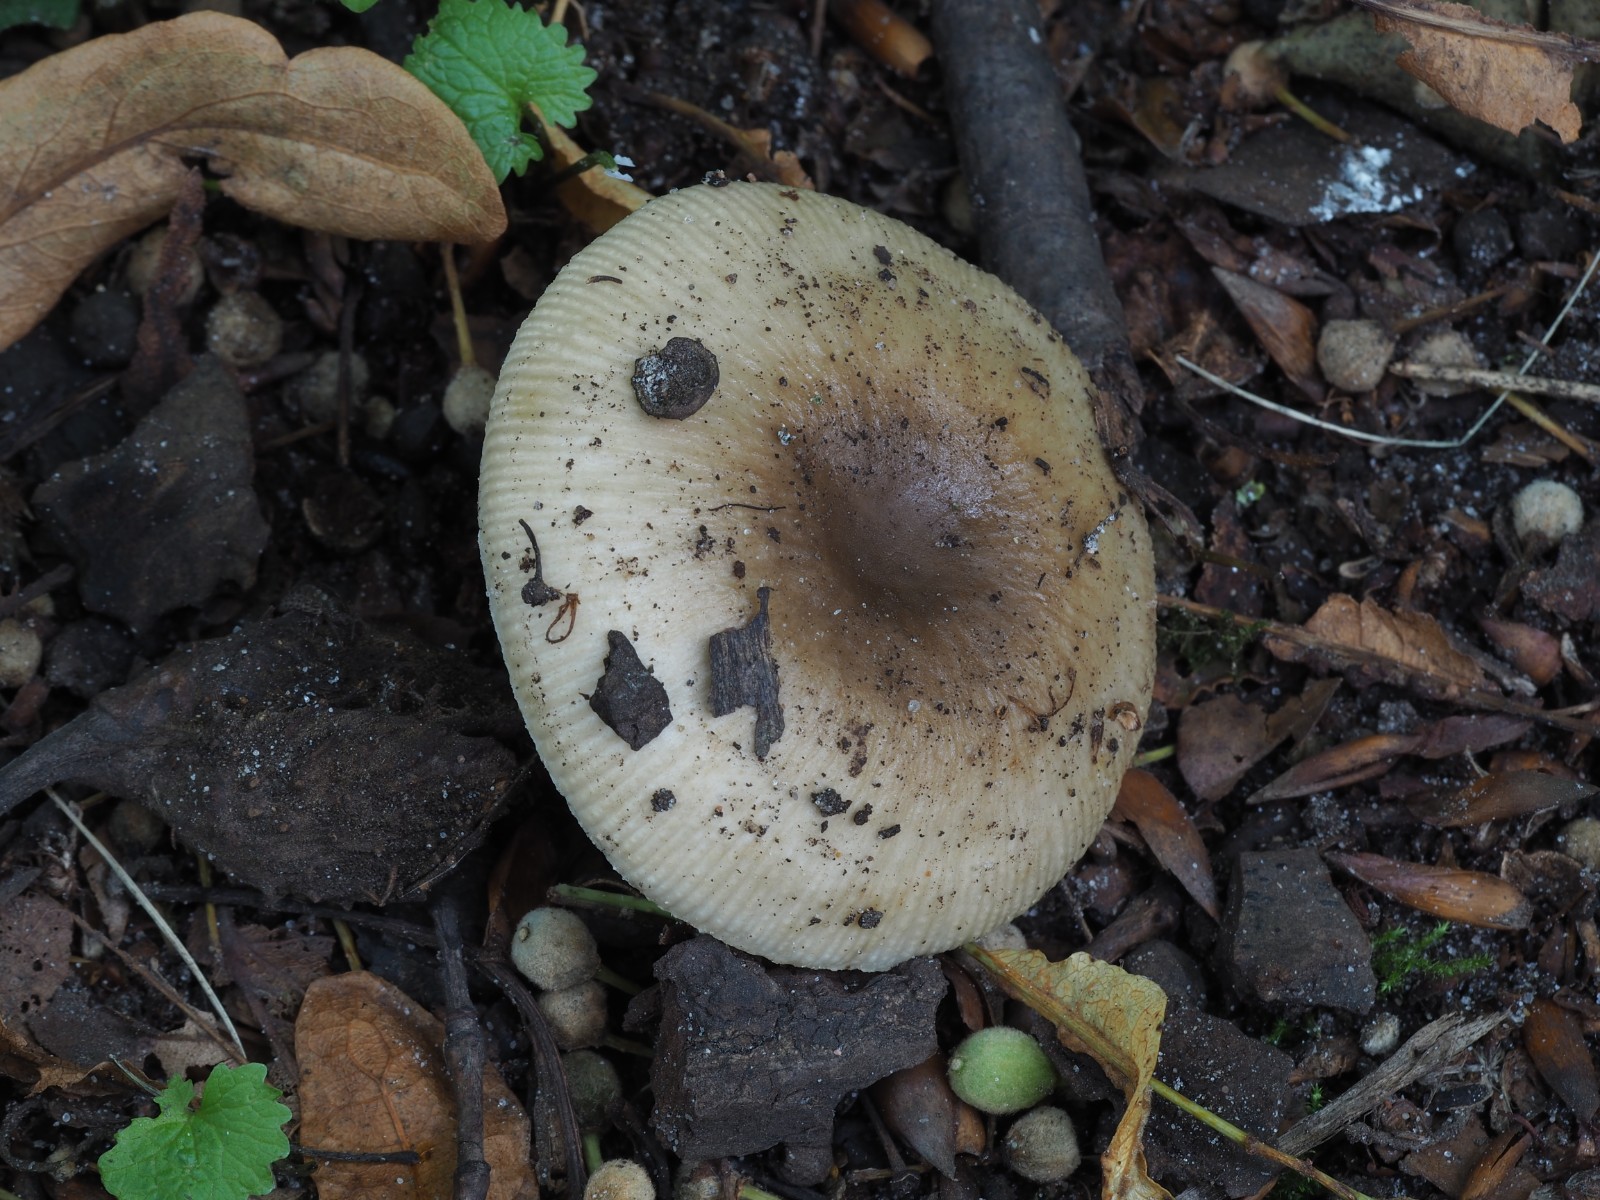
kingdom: Fungi
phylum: Basidiomycota
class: Agaricomycetes
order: Russulales
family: Russulaceae
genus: Russula
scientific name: Russula recondita
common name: mild kam-skørhat
